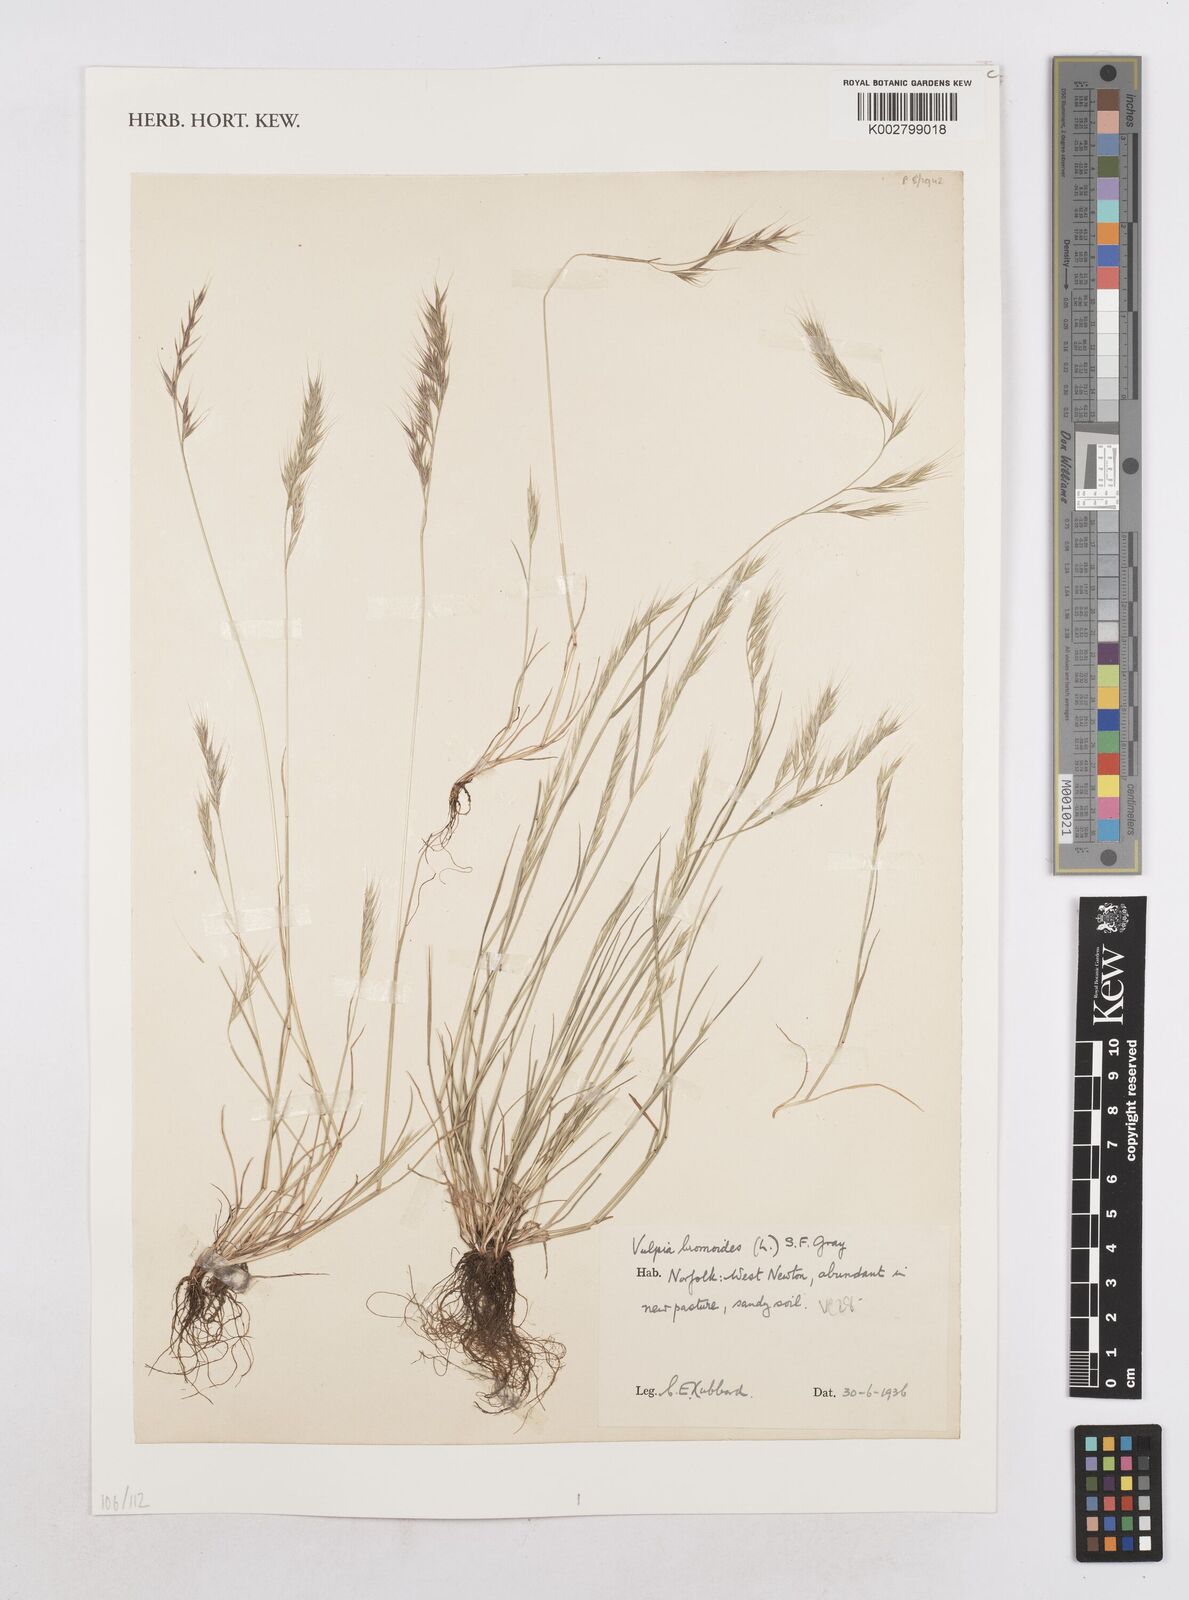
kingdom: Plantae
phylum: Tracheophyta
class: Liliopsida
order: Poales
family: Poaceae
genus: Festuca
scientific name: Festuca bromoides
